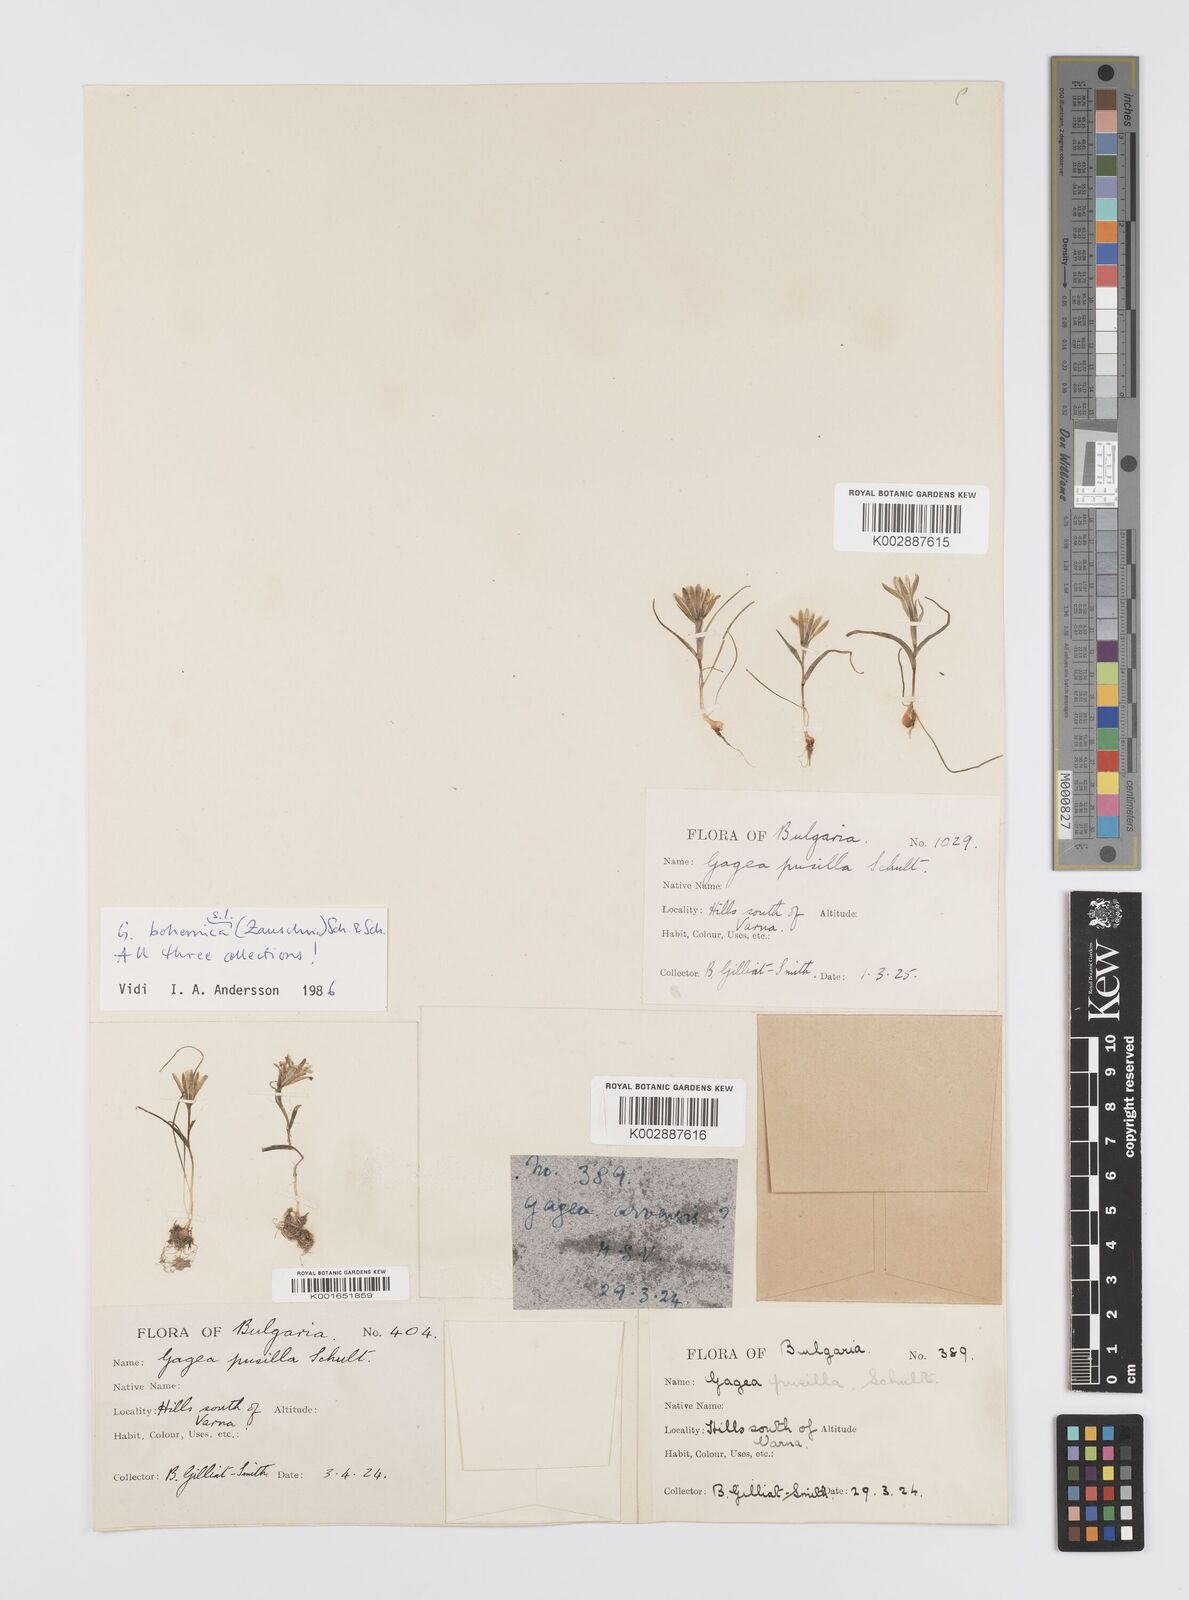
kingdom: Plantae
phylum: Tracheophyta
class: Liliopsida
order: Liliales
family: Liliaceae
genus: Gagea
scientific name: Gagea pusilla
